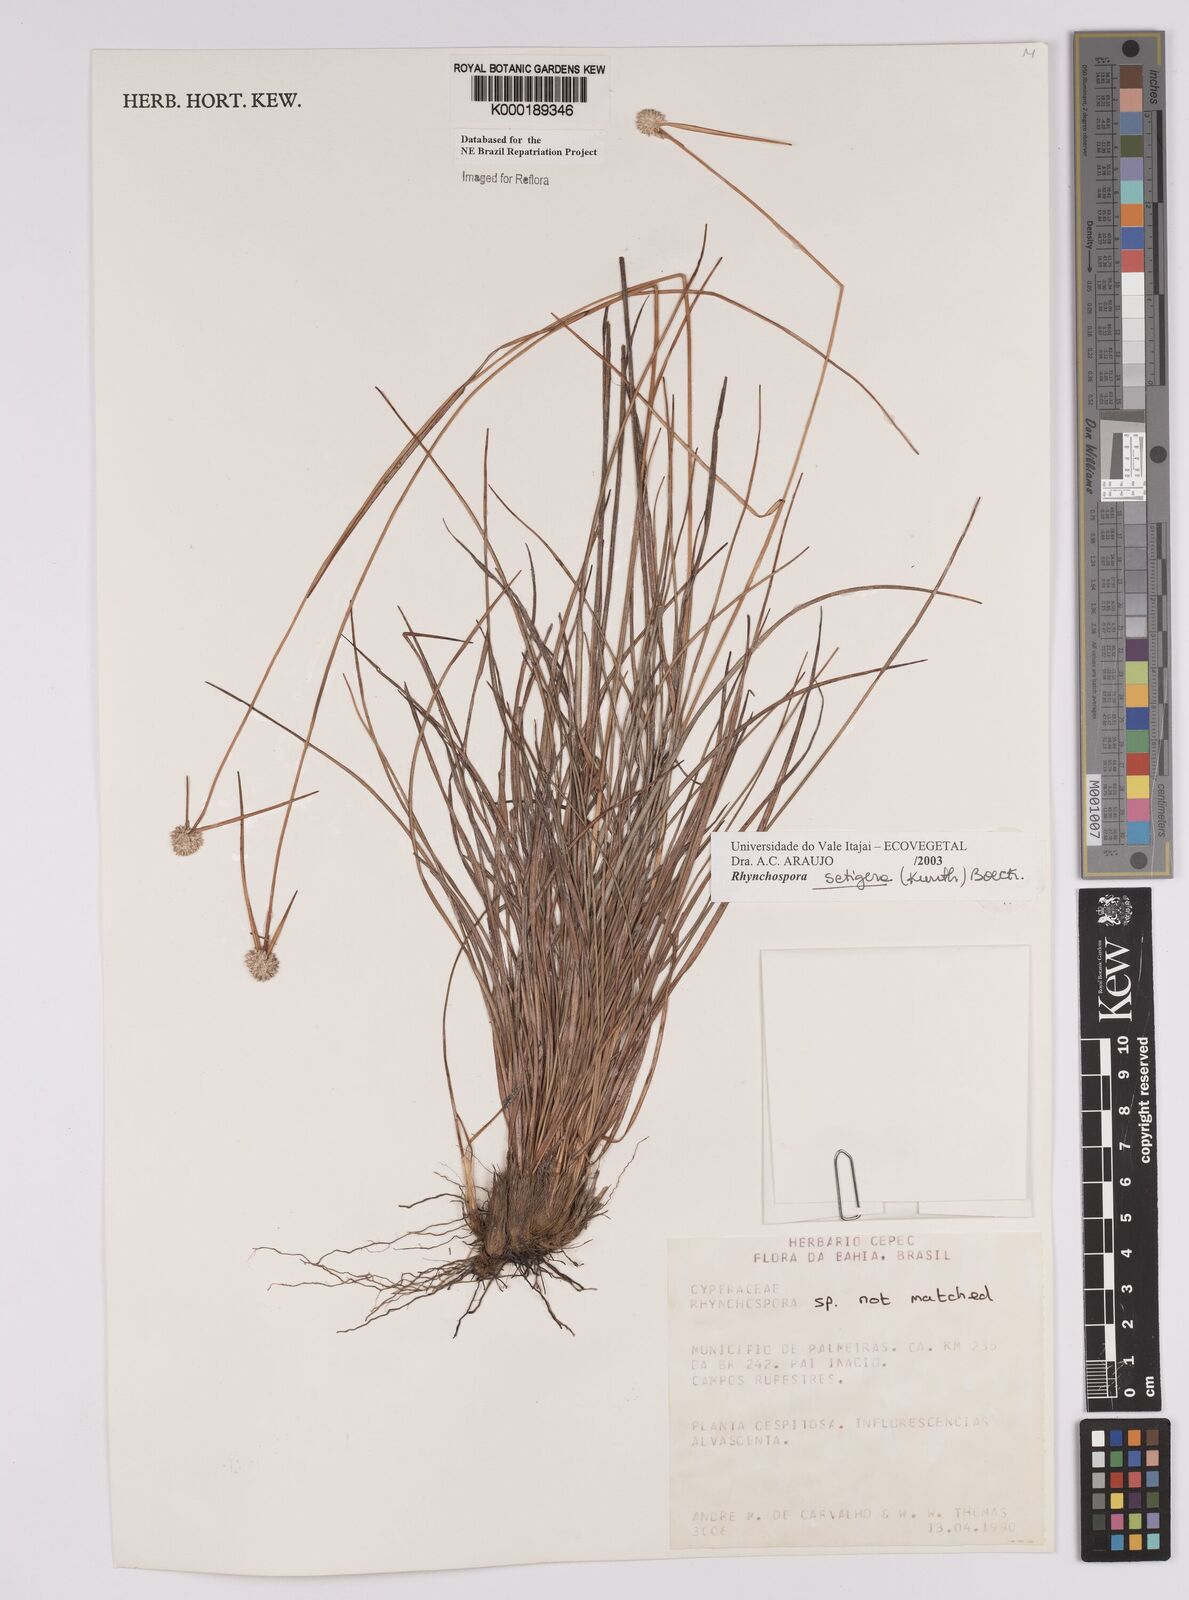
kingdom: Plantae
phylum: Tracheophyta
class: Liliopsida
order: Poales
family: Cyperaceae
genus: Rhynchospora
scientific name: Rhynchospora
